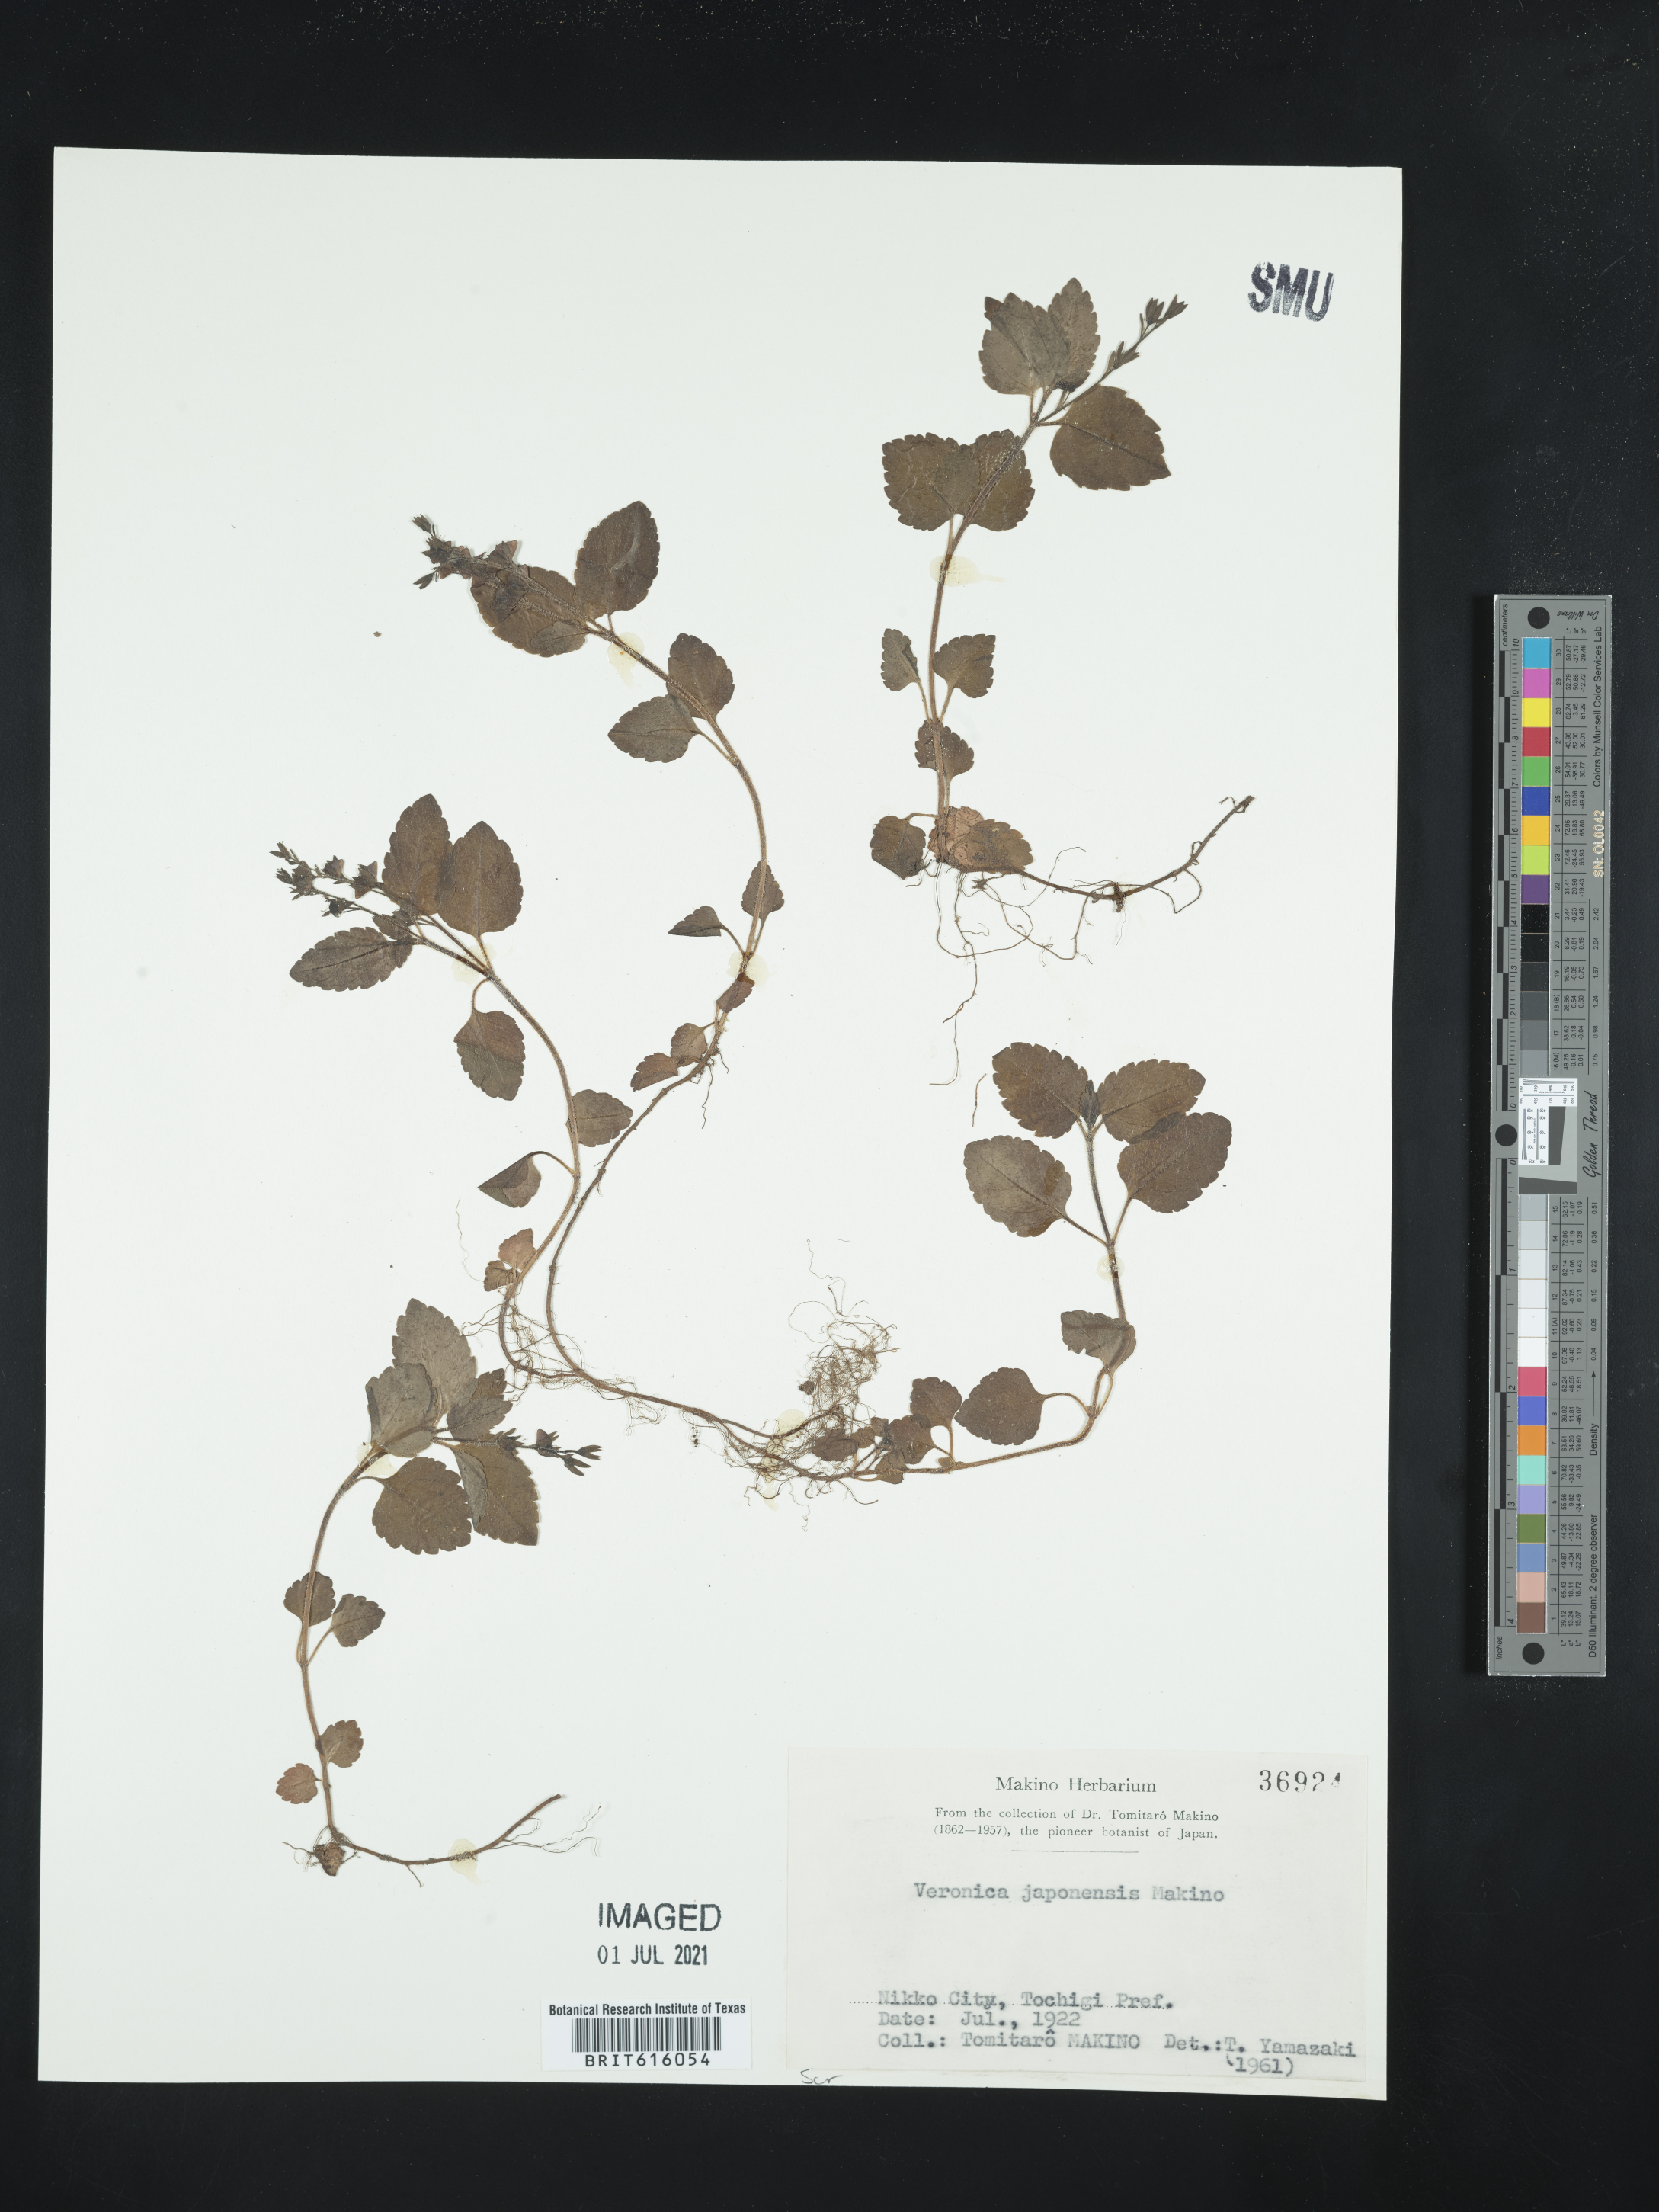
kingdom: Plantae
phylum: Tracheophyta
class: Magnoliopsida
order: Lamiales
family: Plantaginaceae
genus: Veronica
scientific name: Veronica japonensis
